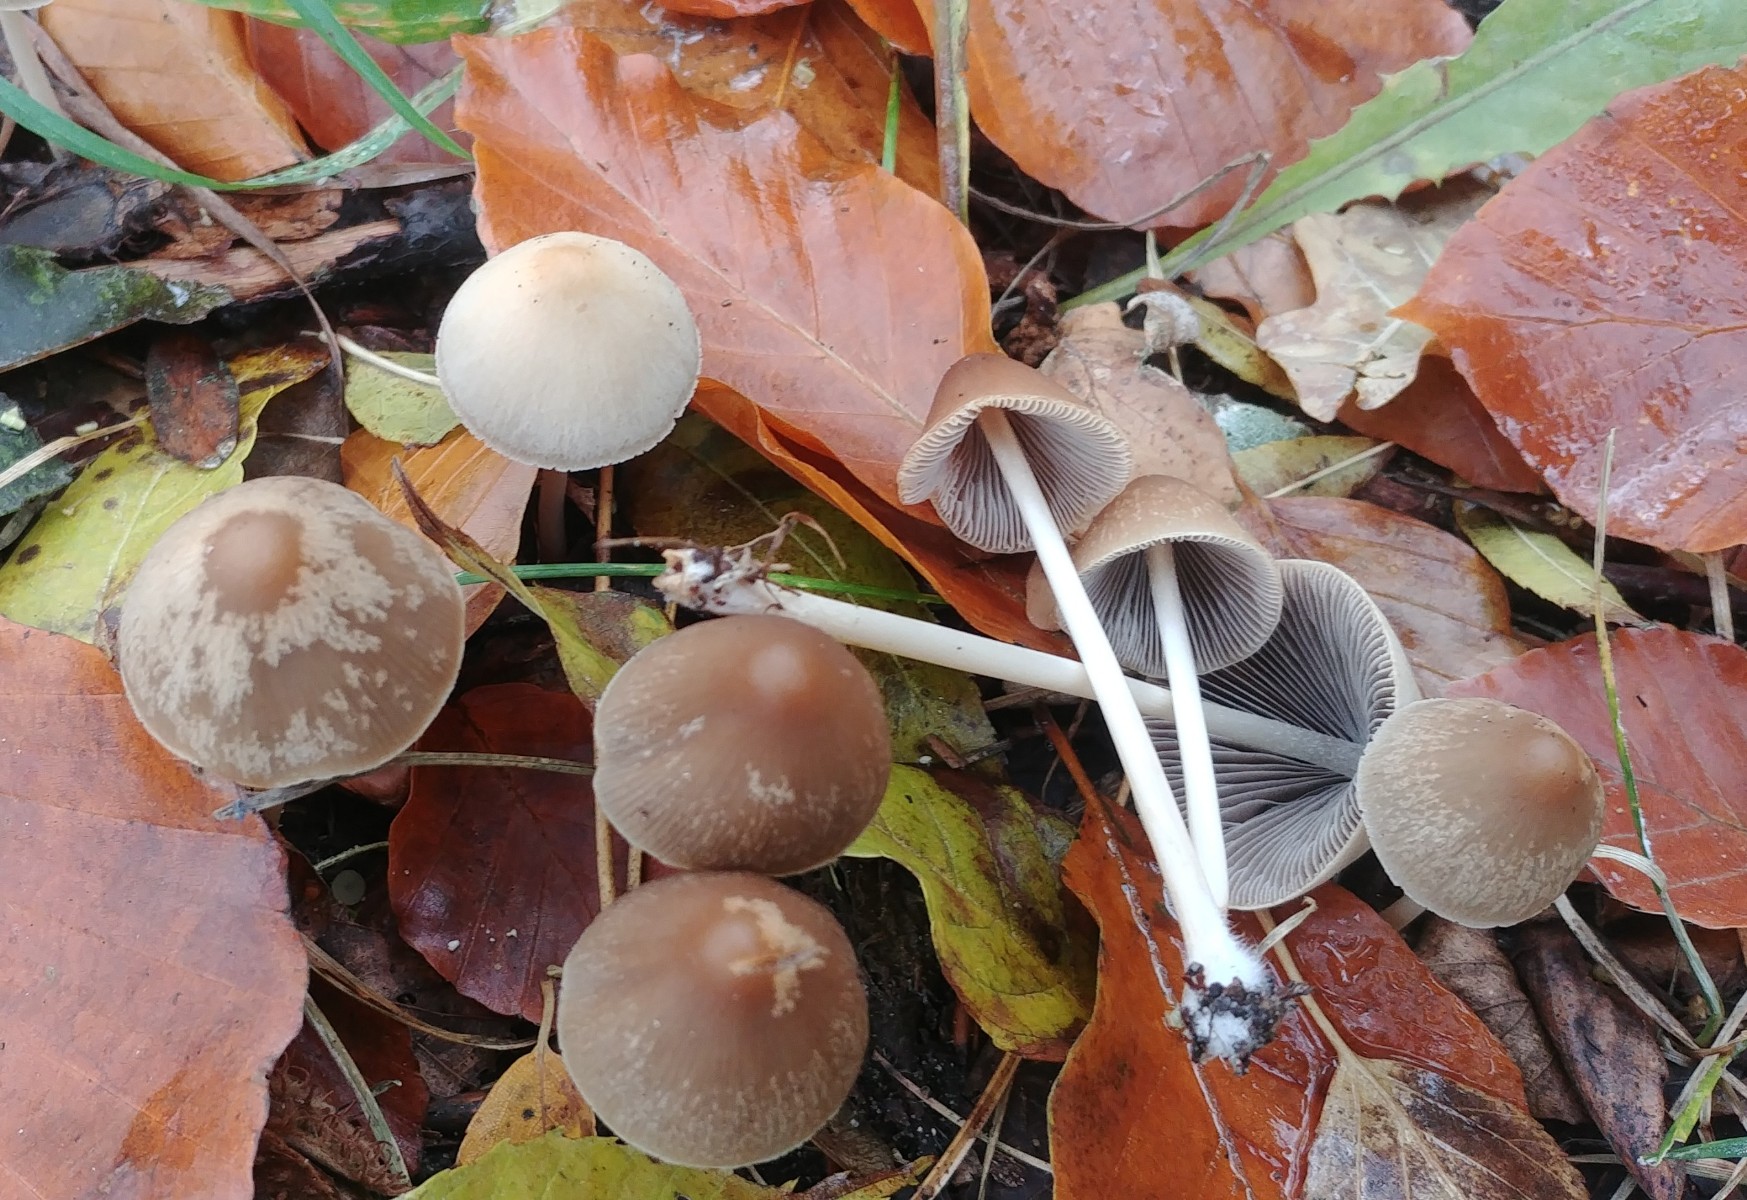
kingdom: Fungi
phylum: Basidiomycota
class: Agaricomycetes
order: Agaricales
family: Psathyrellaceae
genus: Psathyrella
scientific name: Psathyrella
